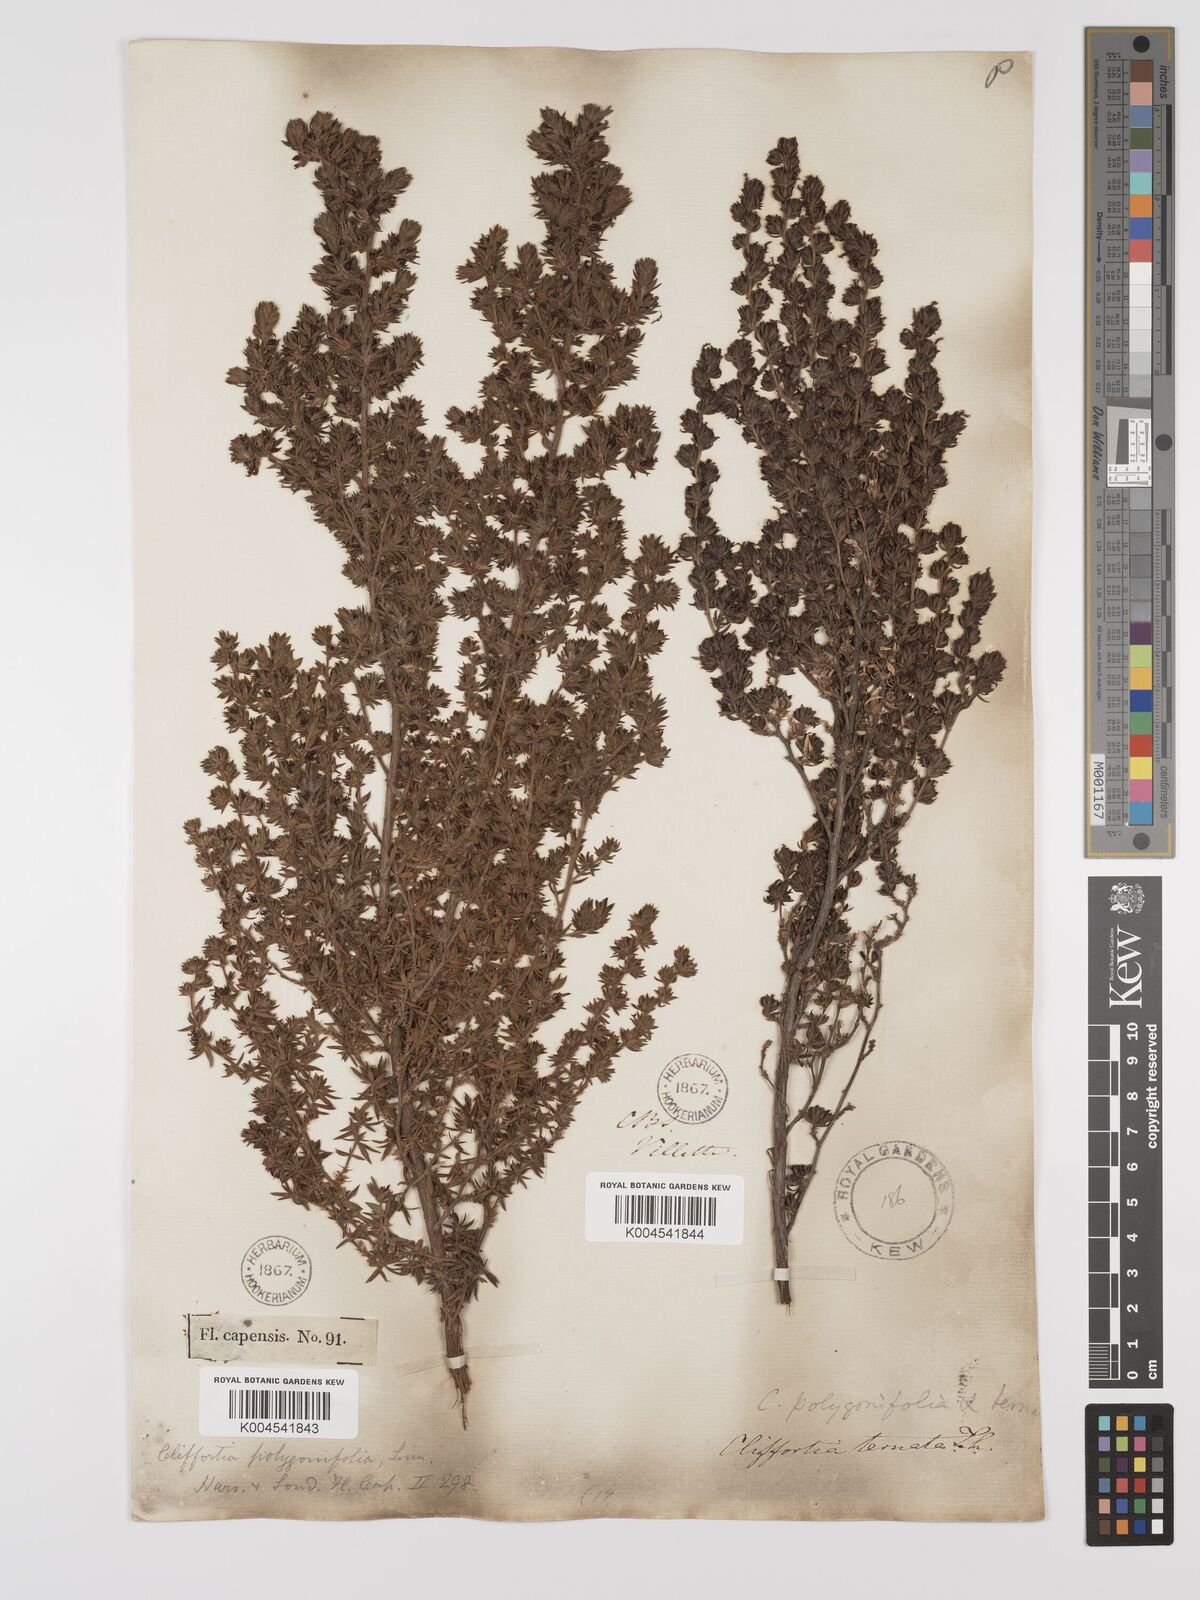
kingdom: Plantae
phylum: Tracheophyta
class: Magnoliopsida
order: Rosales
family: Rosaceae
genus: Cliffortia
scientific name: Cliffortia polygonifolia
